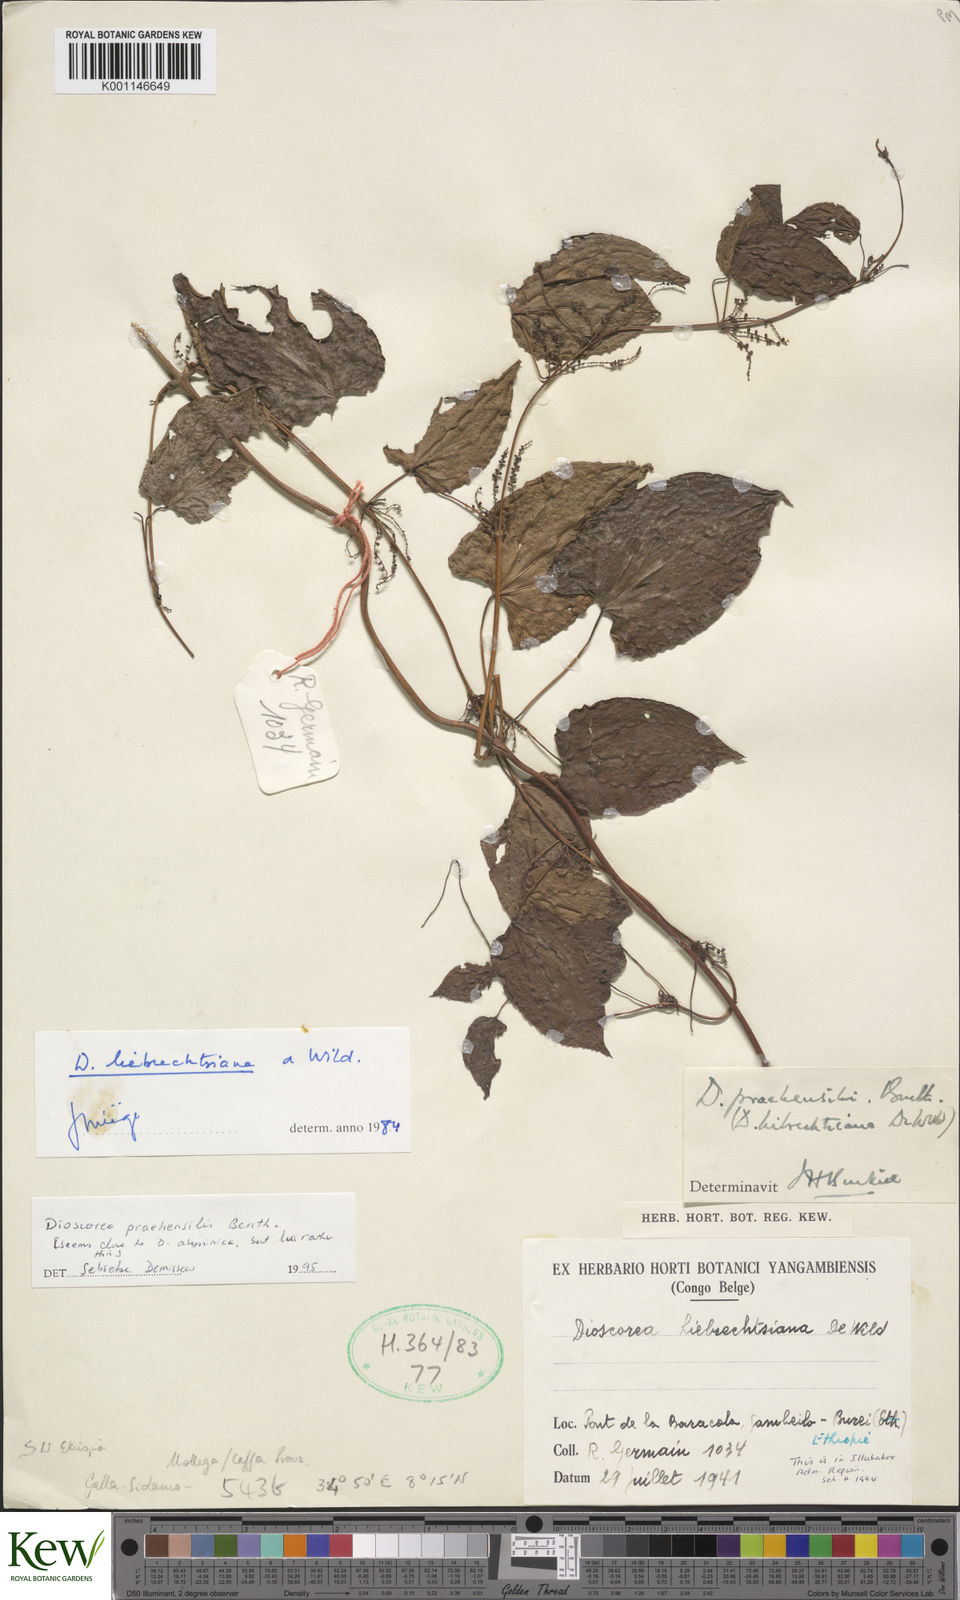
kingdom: Plantae
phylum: Tracheophyta
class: Liliopsida
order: Dioscoreales
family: Dioscoreaceae
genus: Dioscorea
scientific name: Dioscorea praehensilis
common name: Bush yam
